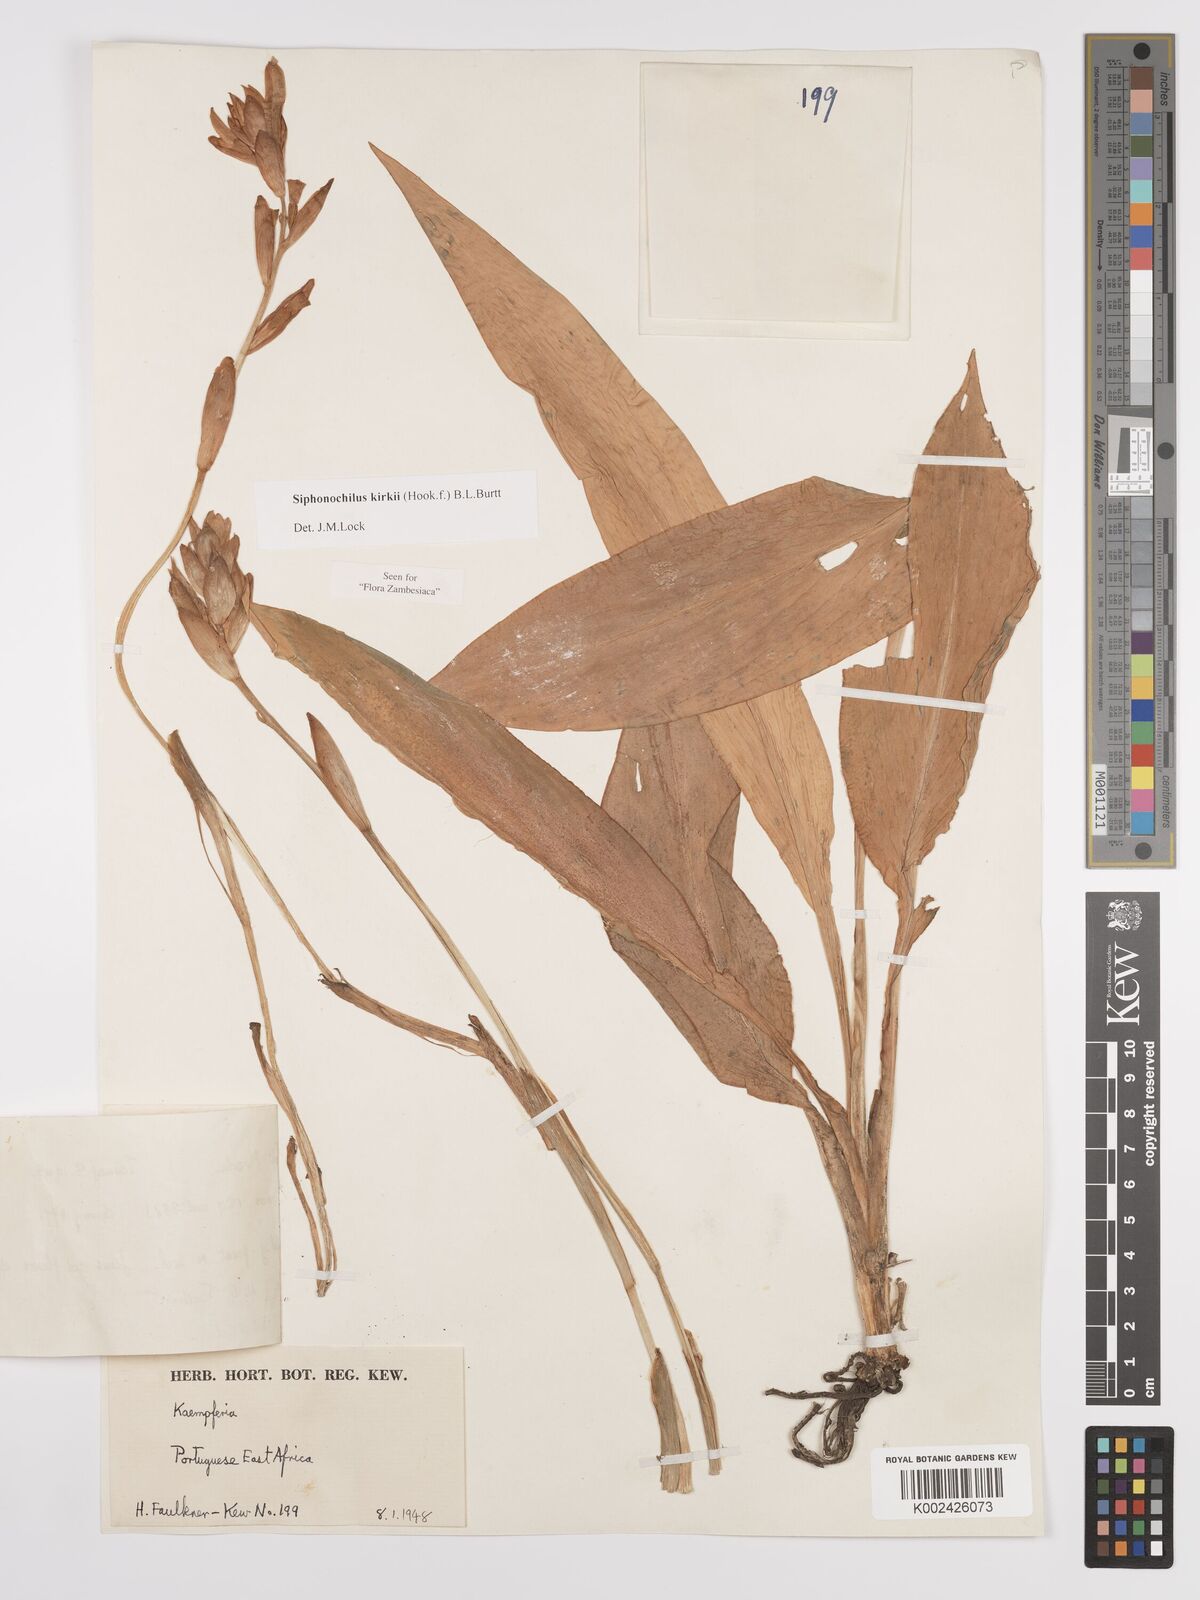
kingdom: Plantae
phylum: Tracheophyta
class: Liliopsida
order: Zingiberales
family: Zingiberaceae
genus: Siphonochilus
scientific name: Siphonochilus kirkii
